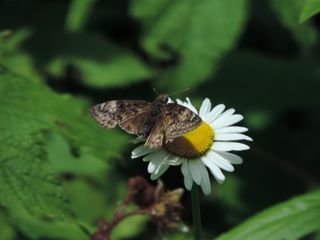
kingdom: Animalia
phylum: Arthropoda
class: Insecta
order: Lepidoptera
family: Hesperiidae
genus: Gesta
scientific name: Gesta
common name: Juvenal's Duskywing
